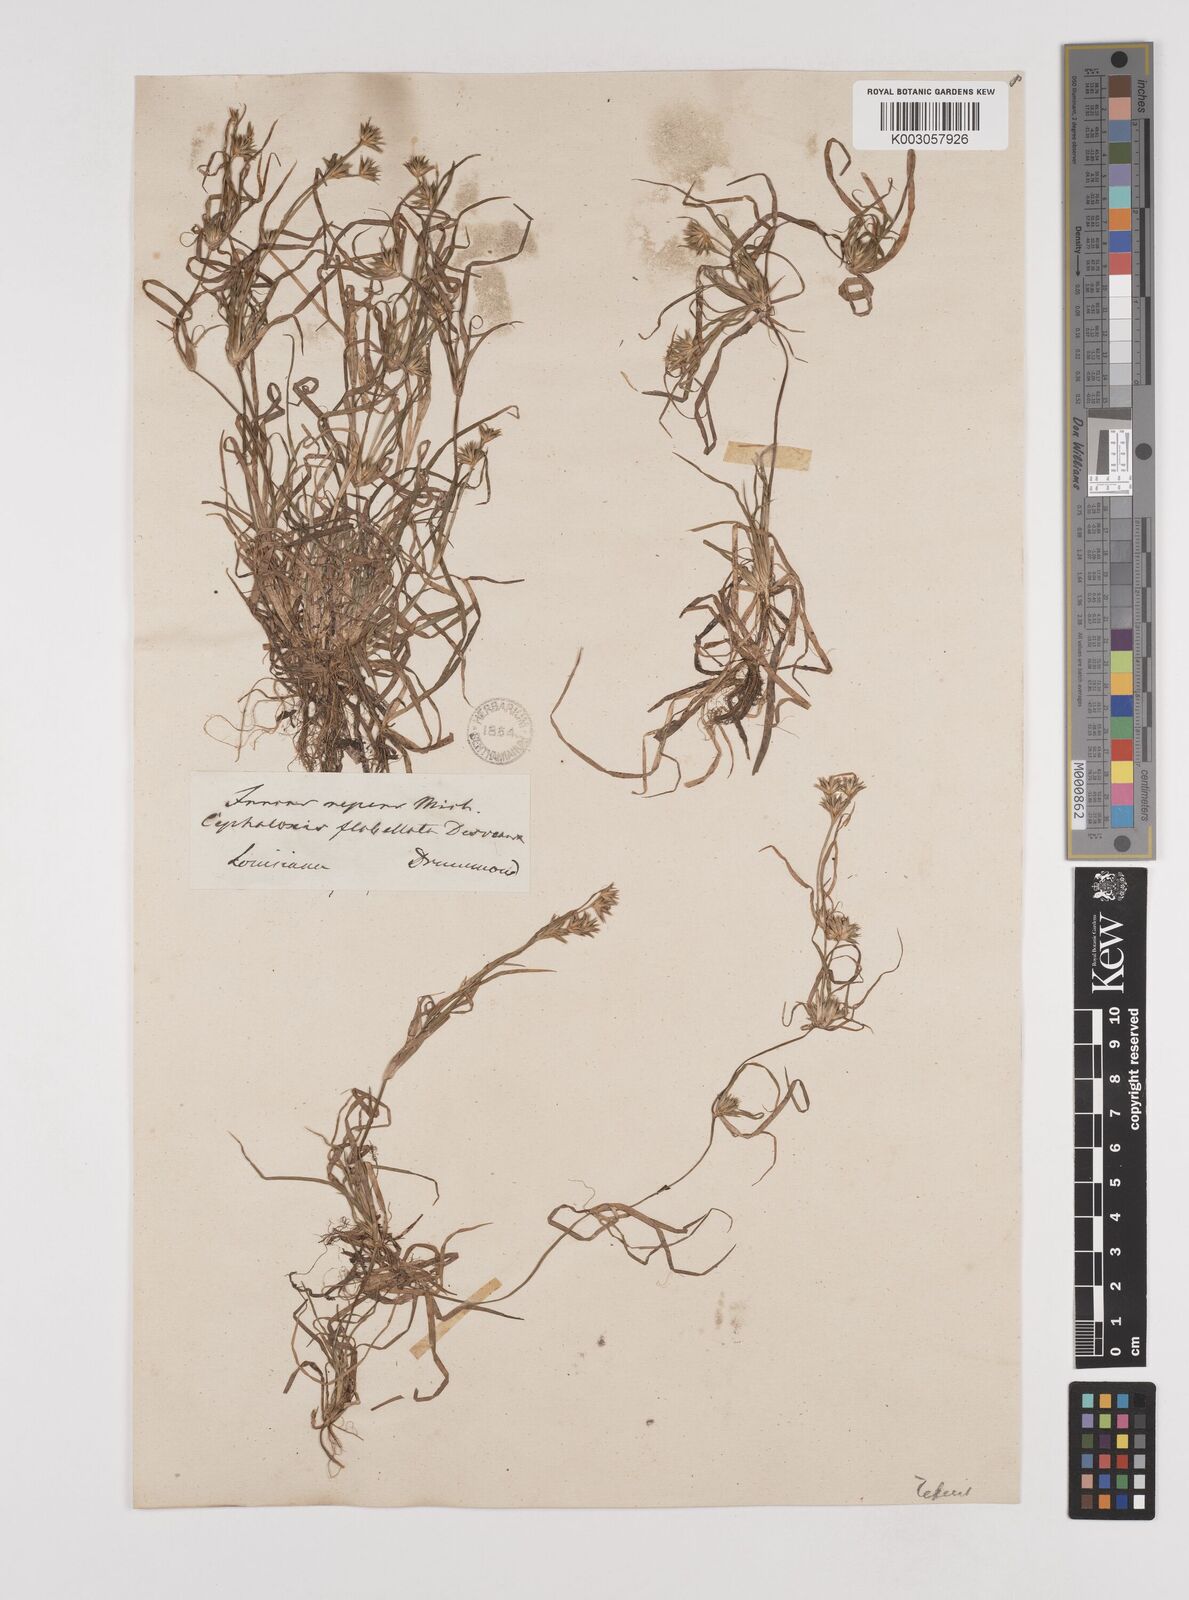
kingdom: Plantae
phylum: Tracheophyta
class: Liliopsida
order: Poales
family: Juncaceae
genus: Juncus
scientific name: Juncus repens
